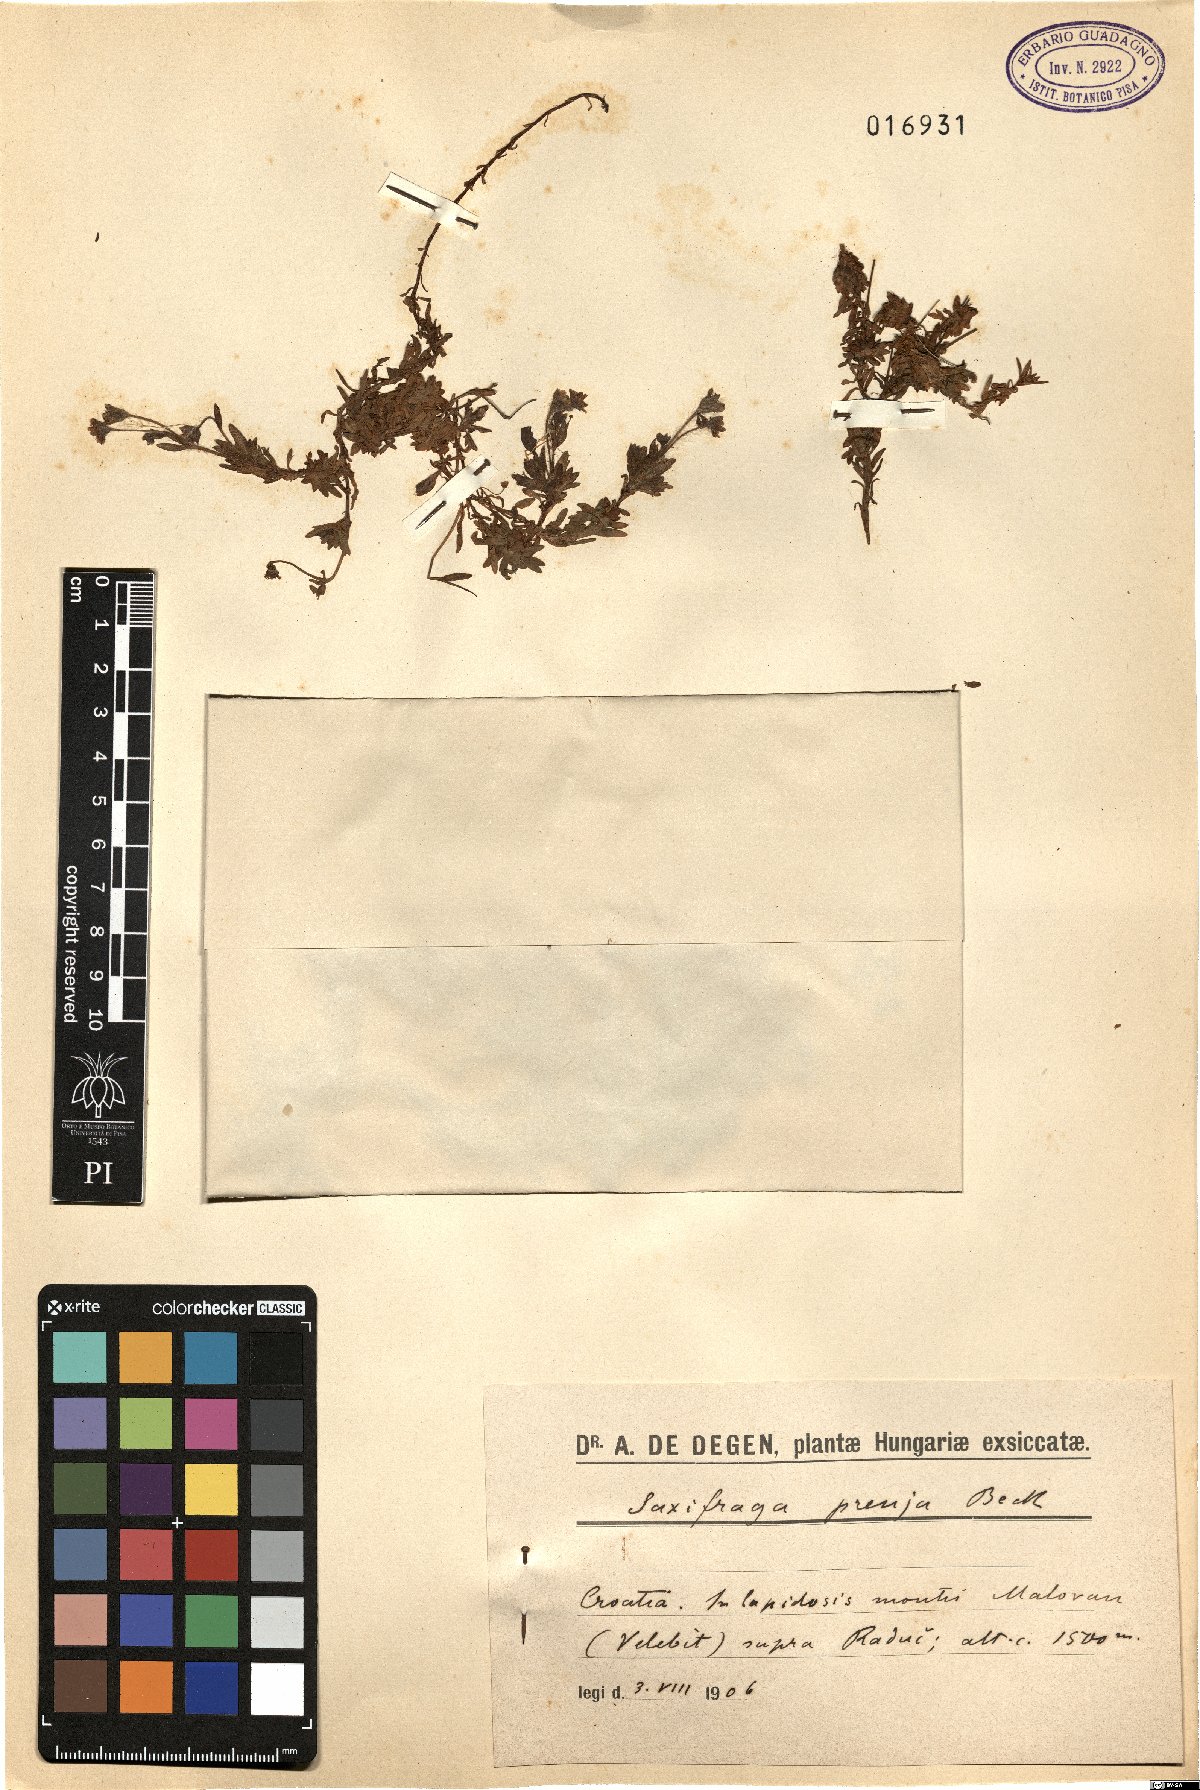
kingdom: Plantae
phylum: Tracheophyta
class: Magnoliopsida
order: Saxifragales
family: Saxifragaceae
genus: Saxifraga
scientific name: Saxifraga prenja
